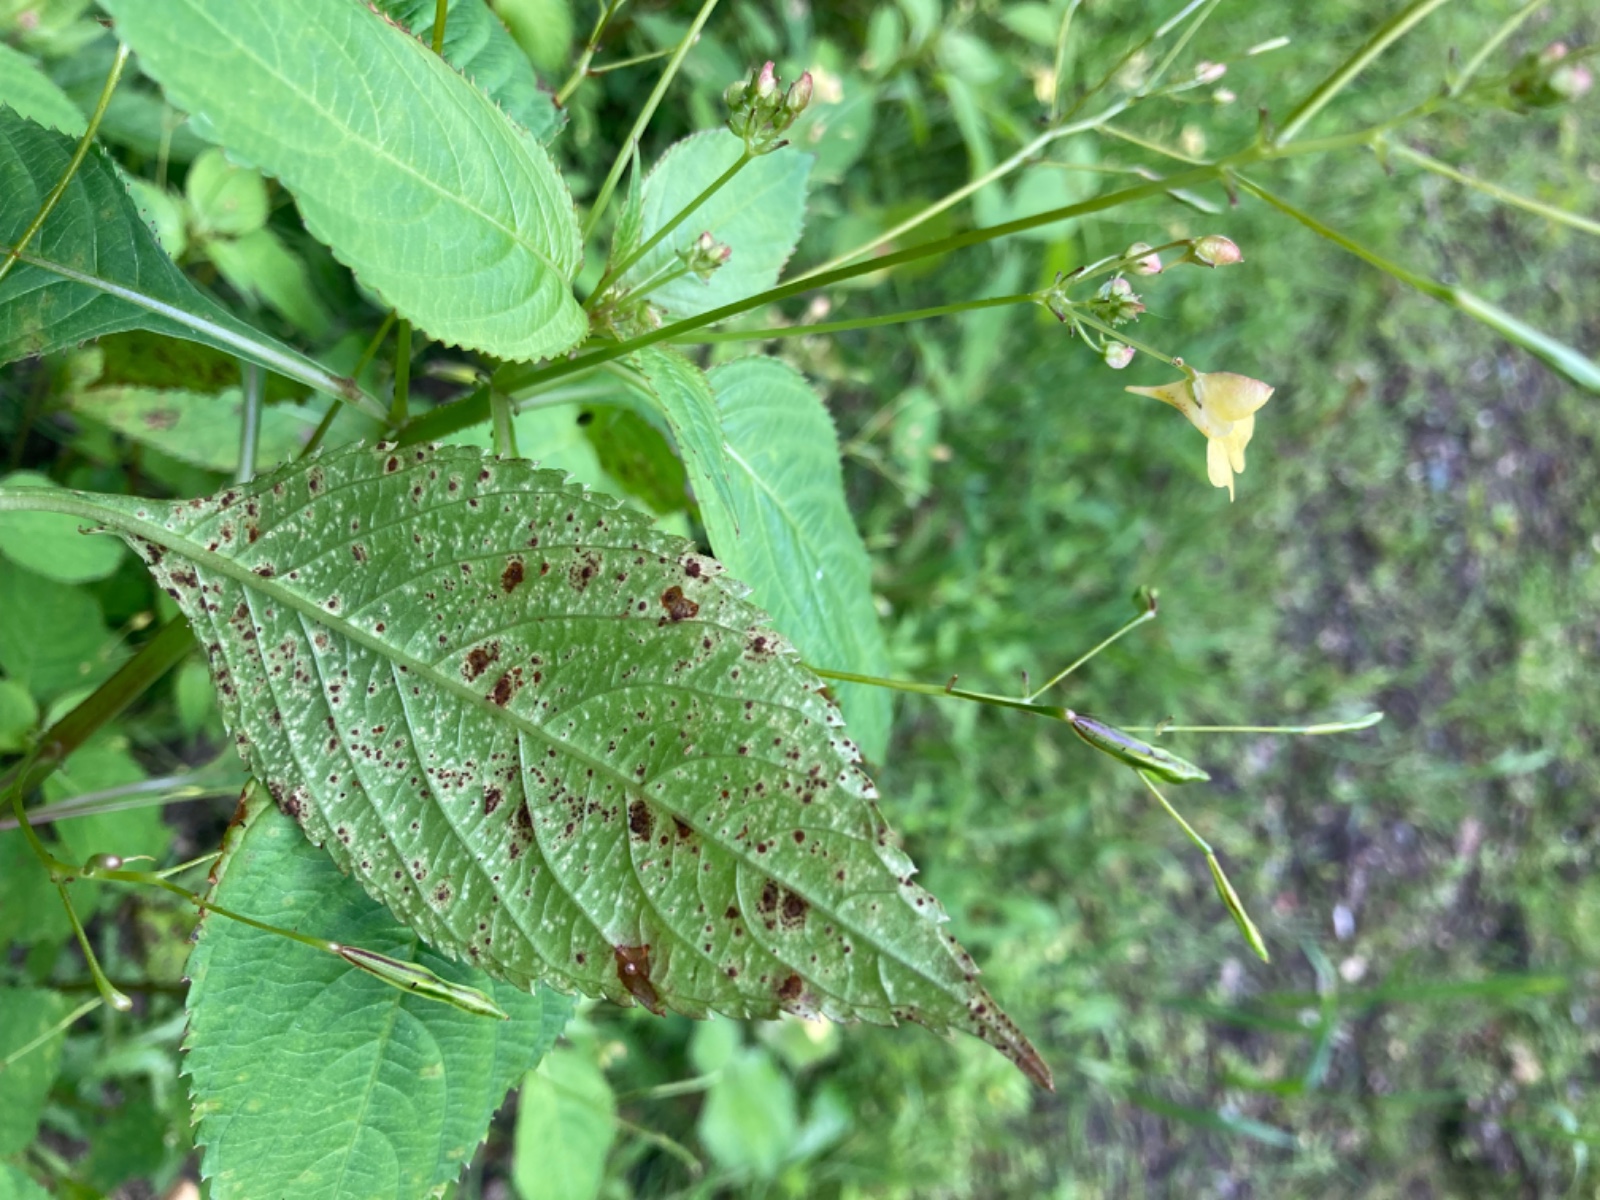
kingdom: Fungi
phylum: Basidiomycota
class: Pucciniomycetes
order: Pucciniales
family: Pucciniaceae
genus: Puccinia
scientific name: Puccinia komarovii
